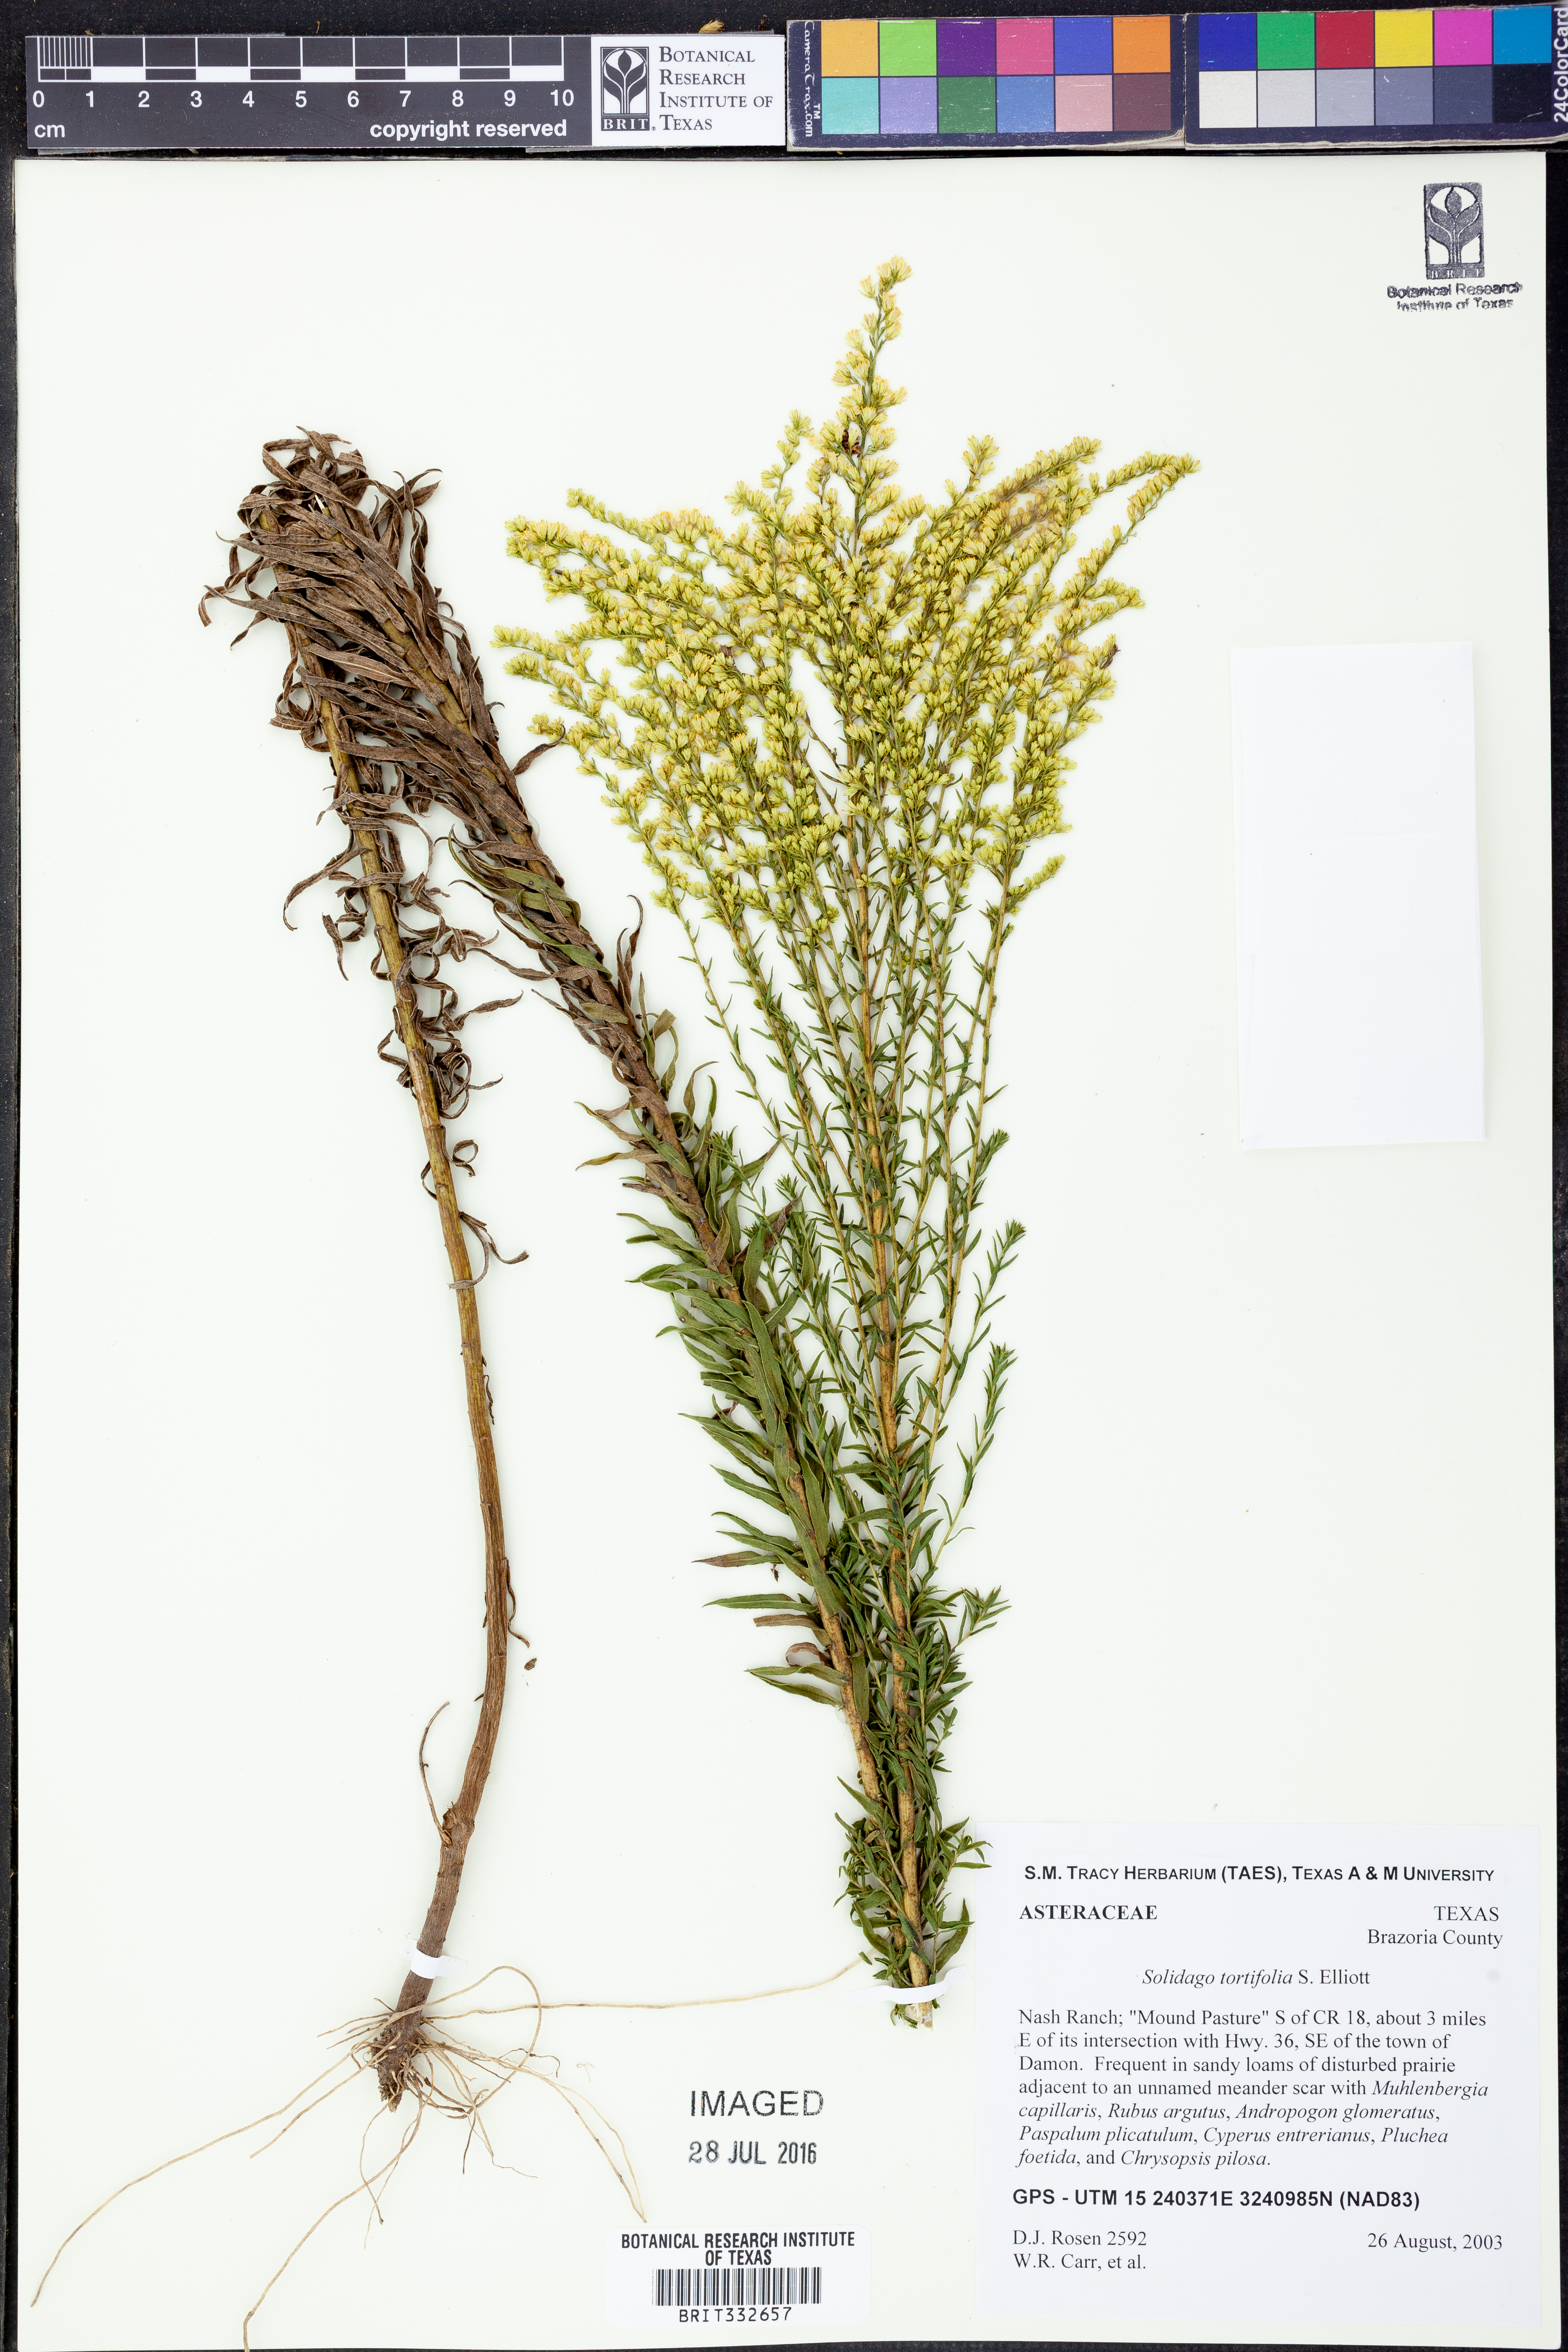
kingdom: Plantae
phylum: Tracheophyta
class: Magnoliopsida
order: Asterales
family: Asteraceae
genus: Solidago
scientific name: Solidago tortifolia
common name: Twisted-leaf goldenrod
